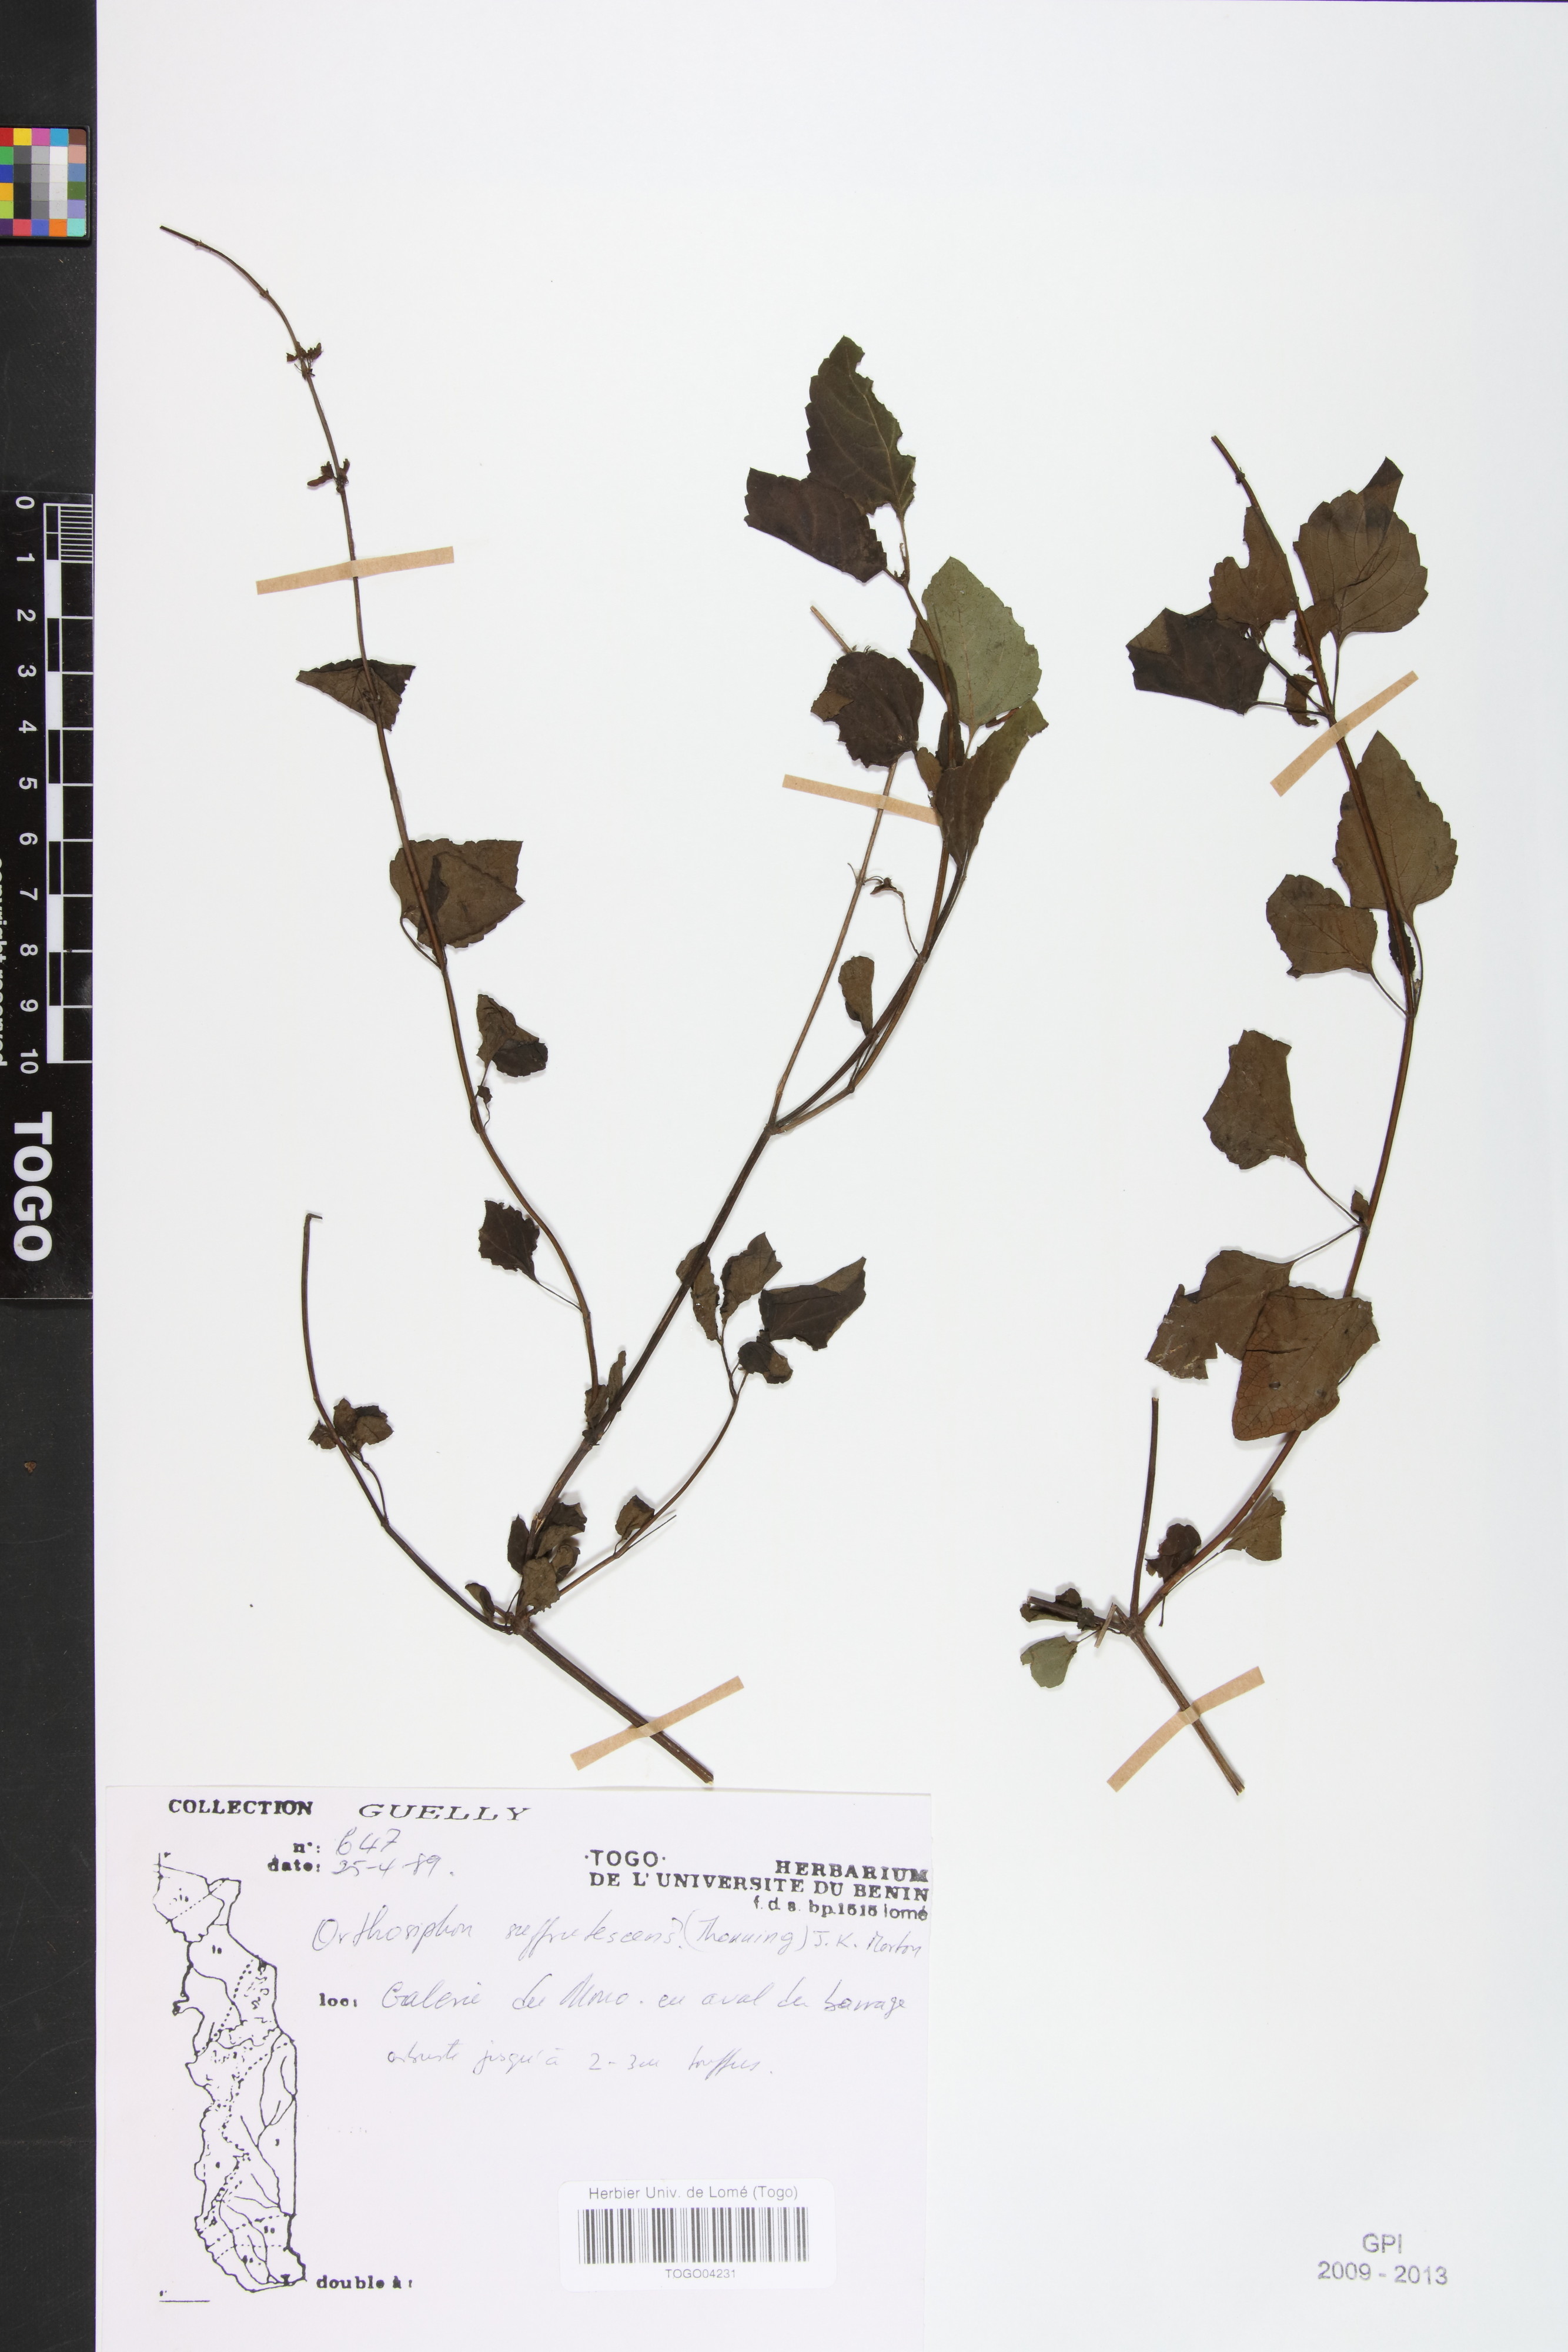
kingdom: Plantae
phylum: Tracheophyta
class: Magnoliopsida
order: Lamiales
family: Lamiaceae
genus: Orthosiphon
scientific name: Orthosiphon thymiflorus
